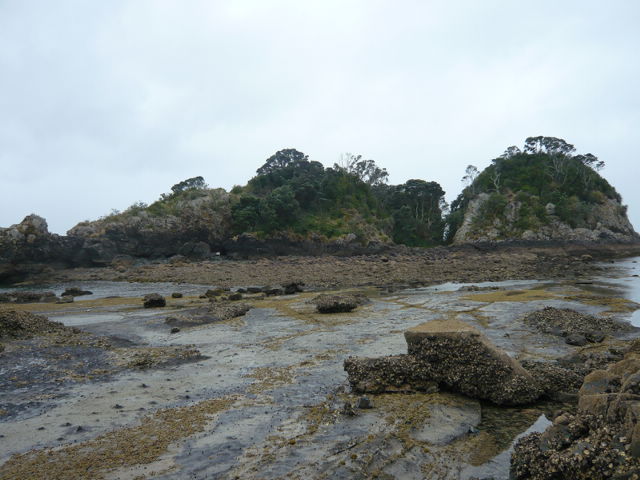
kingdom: Plantae
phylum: Tracheophyta
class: Magnoliopsida
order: Malpighiales
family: Violaceae
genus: Melicytus
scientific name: Melicytus novae-zelandiae
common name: Coastal mahoe
